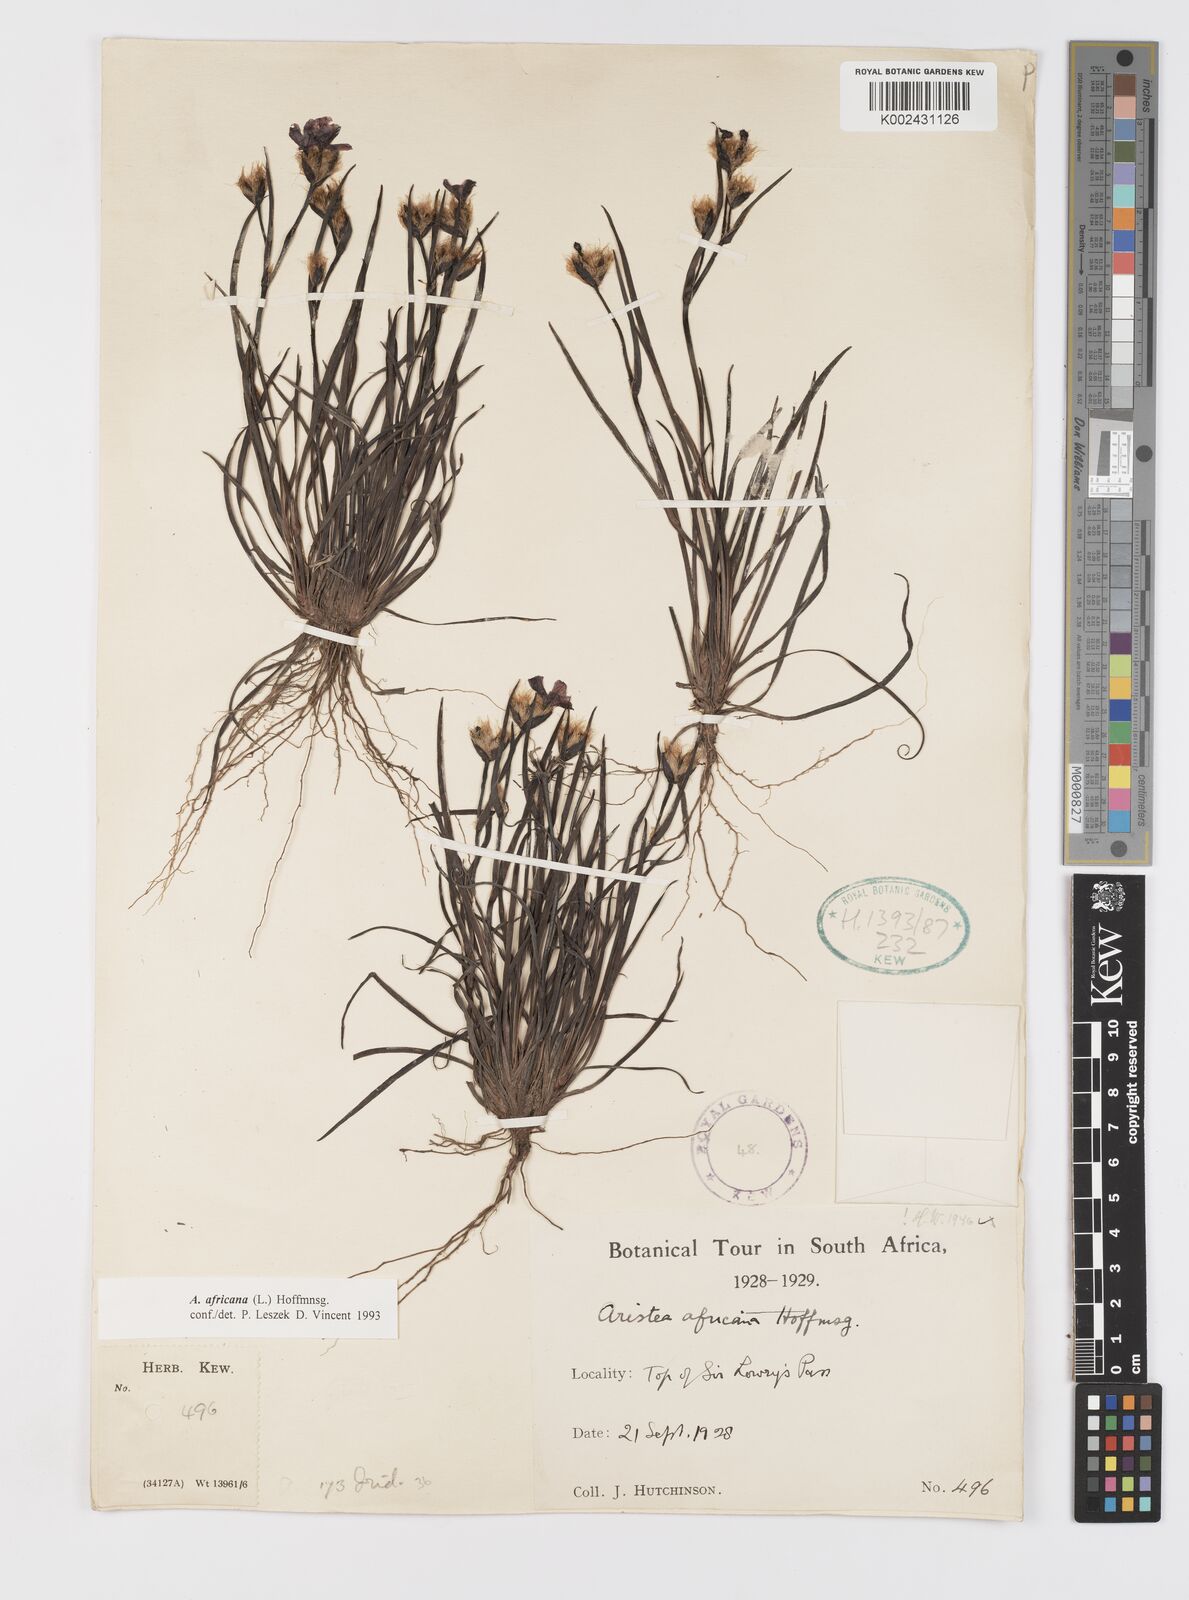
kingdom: Plantae
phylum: Tracheophyta
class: Liliopsida
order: Asparagales
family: Iridaceae
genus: Aristea
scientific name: Aristea africana
